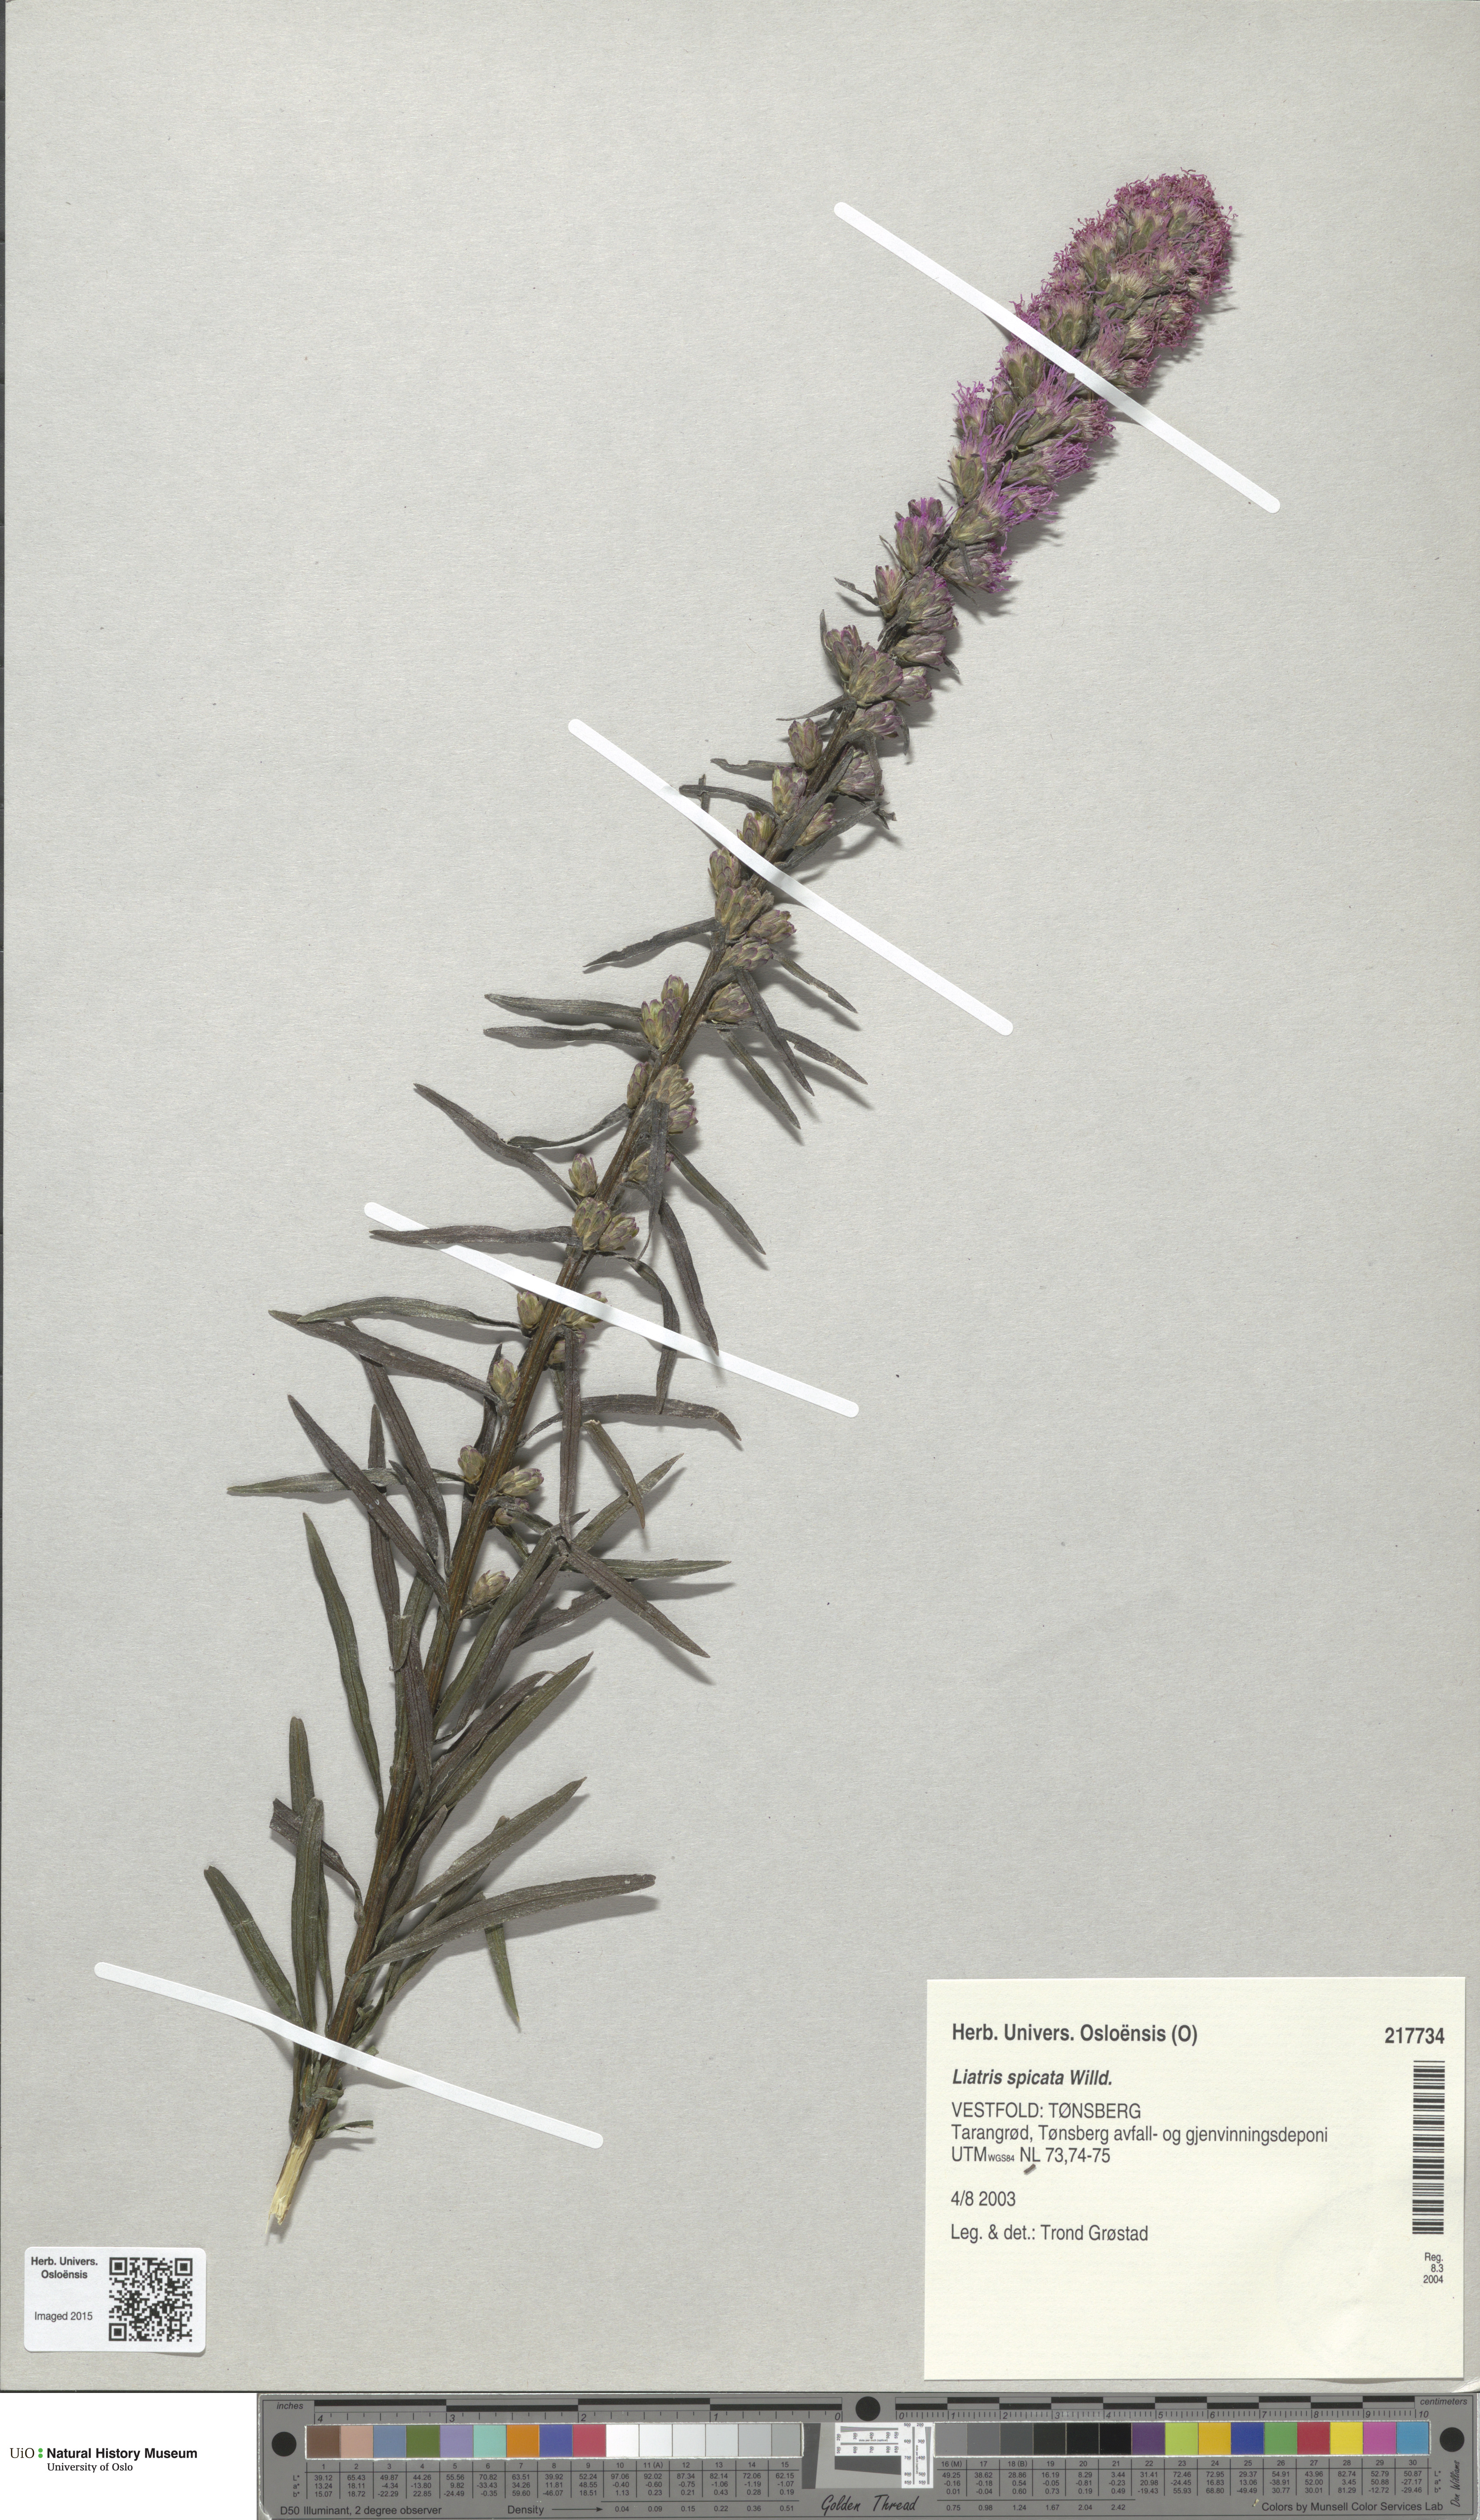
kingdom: Plantae
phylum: Tracheophyta
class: Magnoliopsida
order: Asterales
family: Asteraceae
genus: Liatris
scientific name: Liatris spicata
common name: Florist gayfeather
